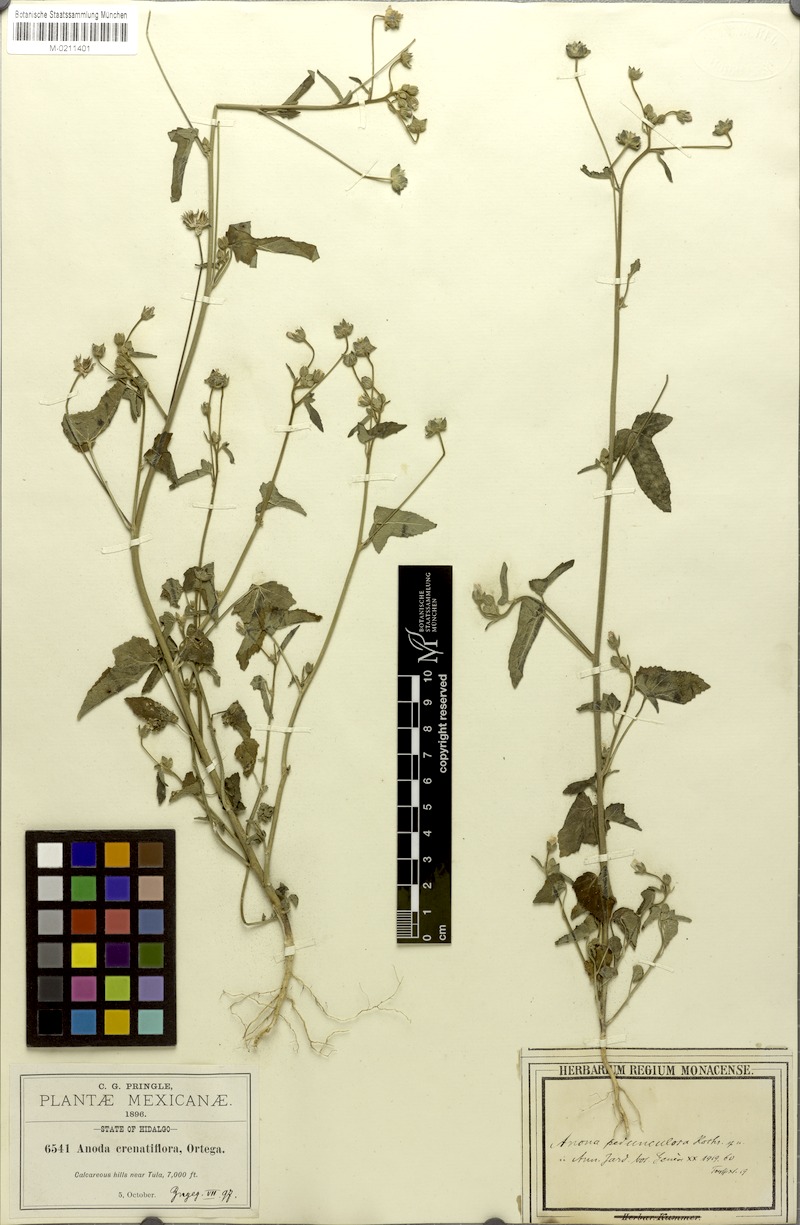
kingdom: Plantae
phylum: Tracheophyta
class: Magnoliopsida
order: Malvales
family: Malvaceae
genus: Anoda
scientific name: Anoda pedunculosa
